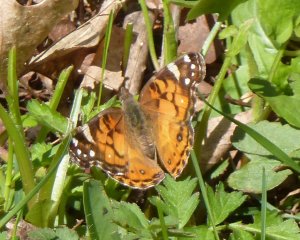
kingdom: Animalia
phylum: Arthropoda
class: Insecta
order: Lepidoptera
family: Nymphalidae
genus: Vanessa
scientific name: Vanessa virginiensis
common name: American Lady
